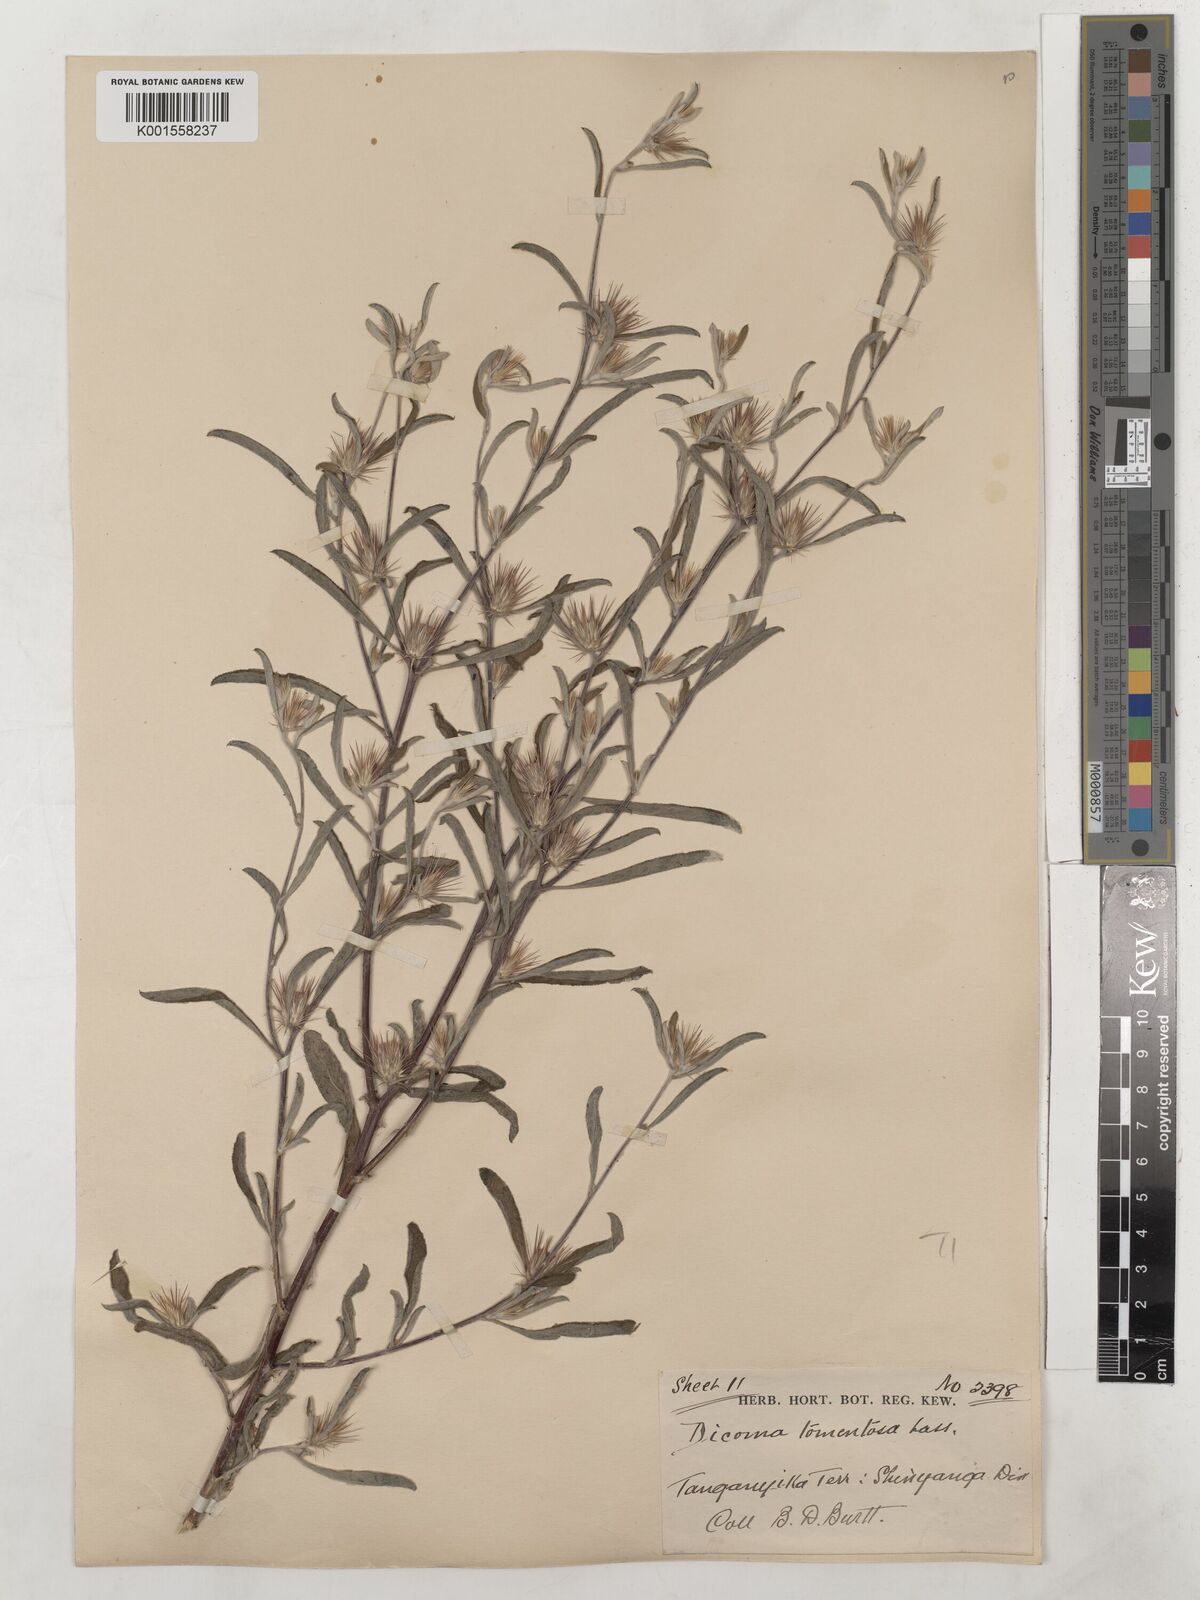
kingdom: Plantae
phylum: Tracheophyta
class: Magnoliopsida
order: Asterales
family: Asteraceae
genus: Dicoma
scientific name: Dicoma tomentosa
